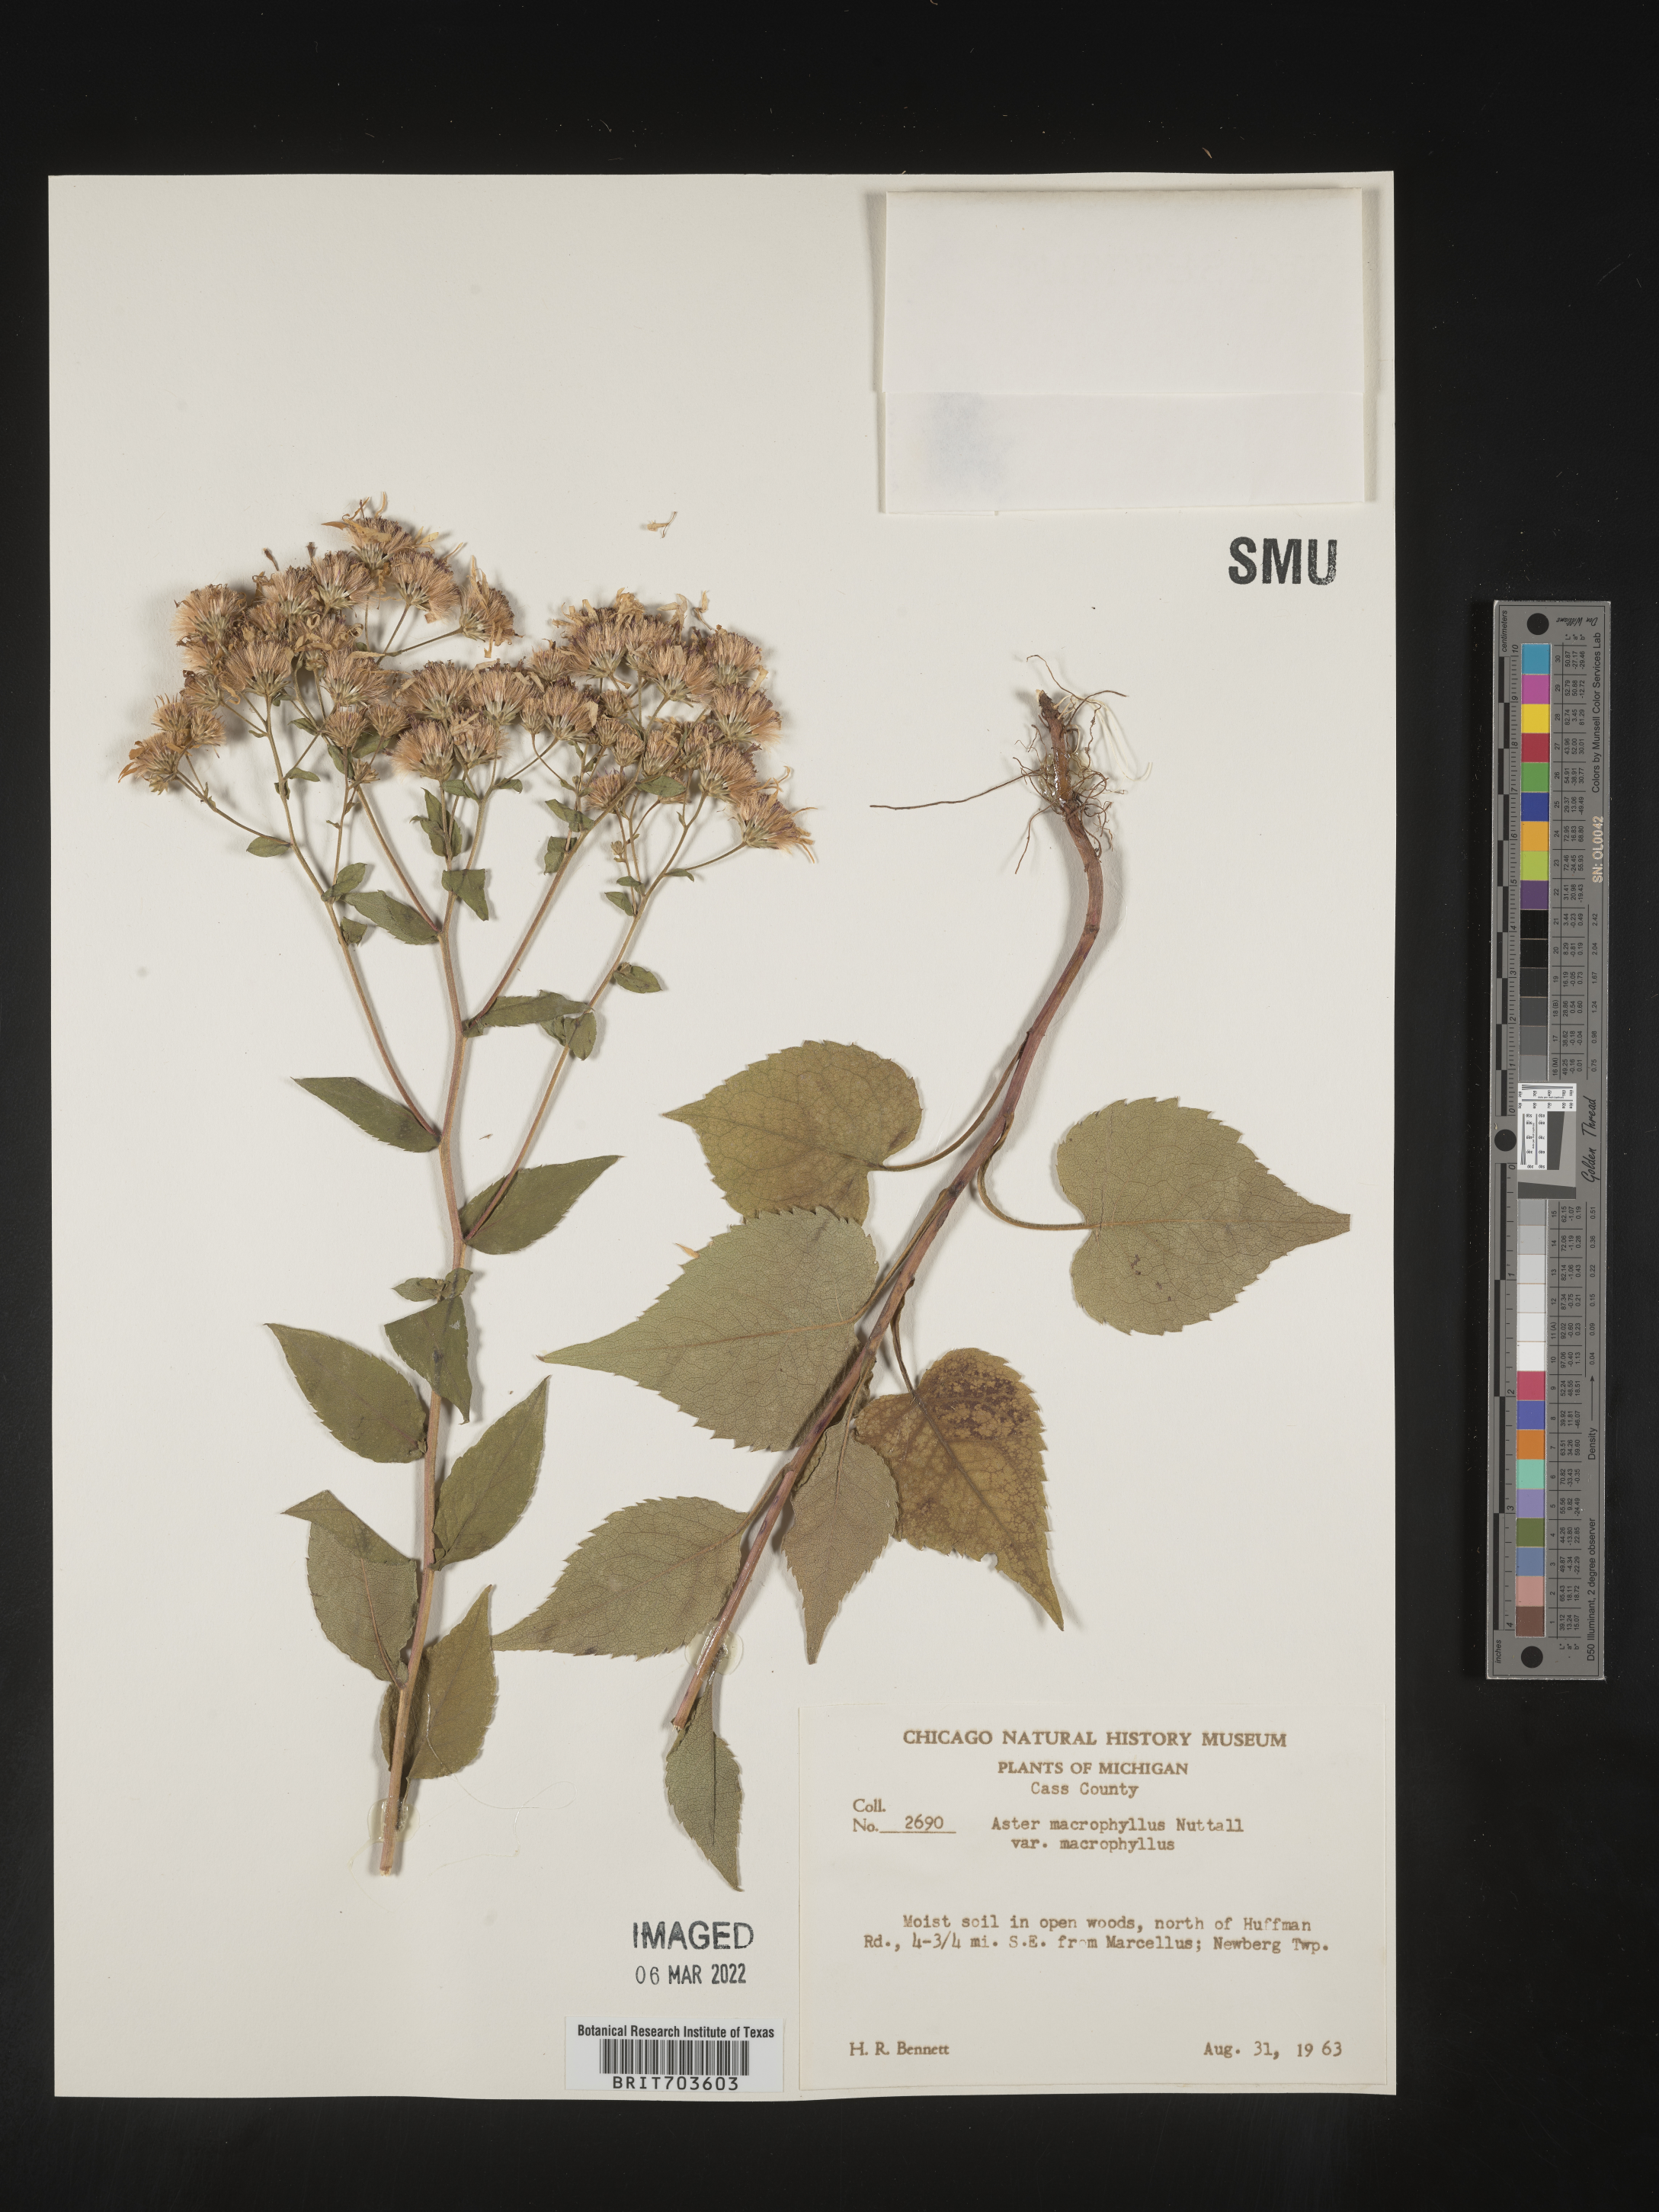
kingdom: Plantae
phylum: Tracheophyta
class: Magnoliopsida
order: Asterales
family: Asteraceae
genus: Eurybia
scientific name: Eurybia macrophylla
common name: Big-leaved aster
